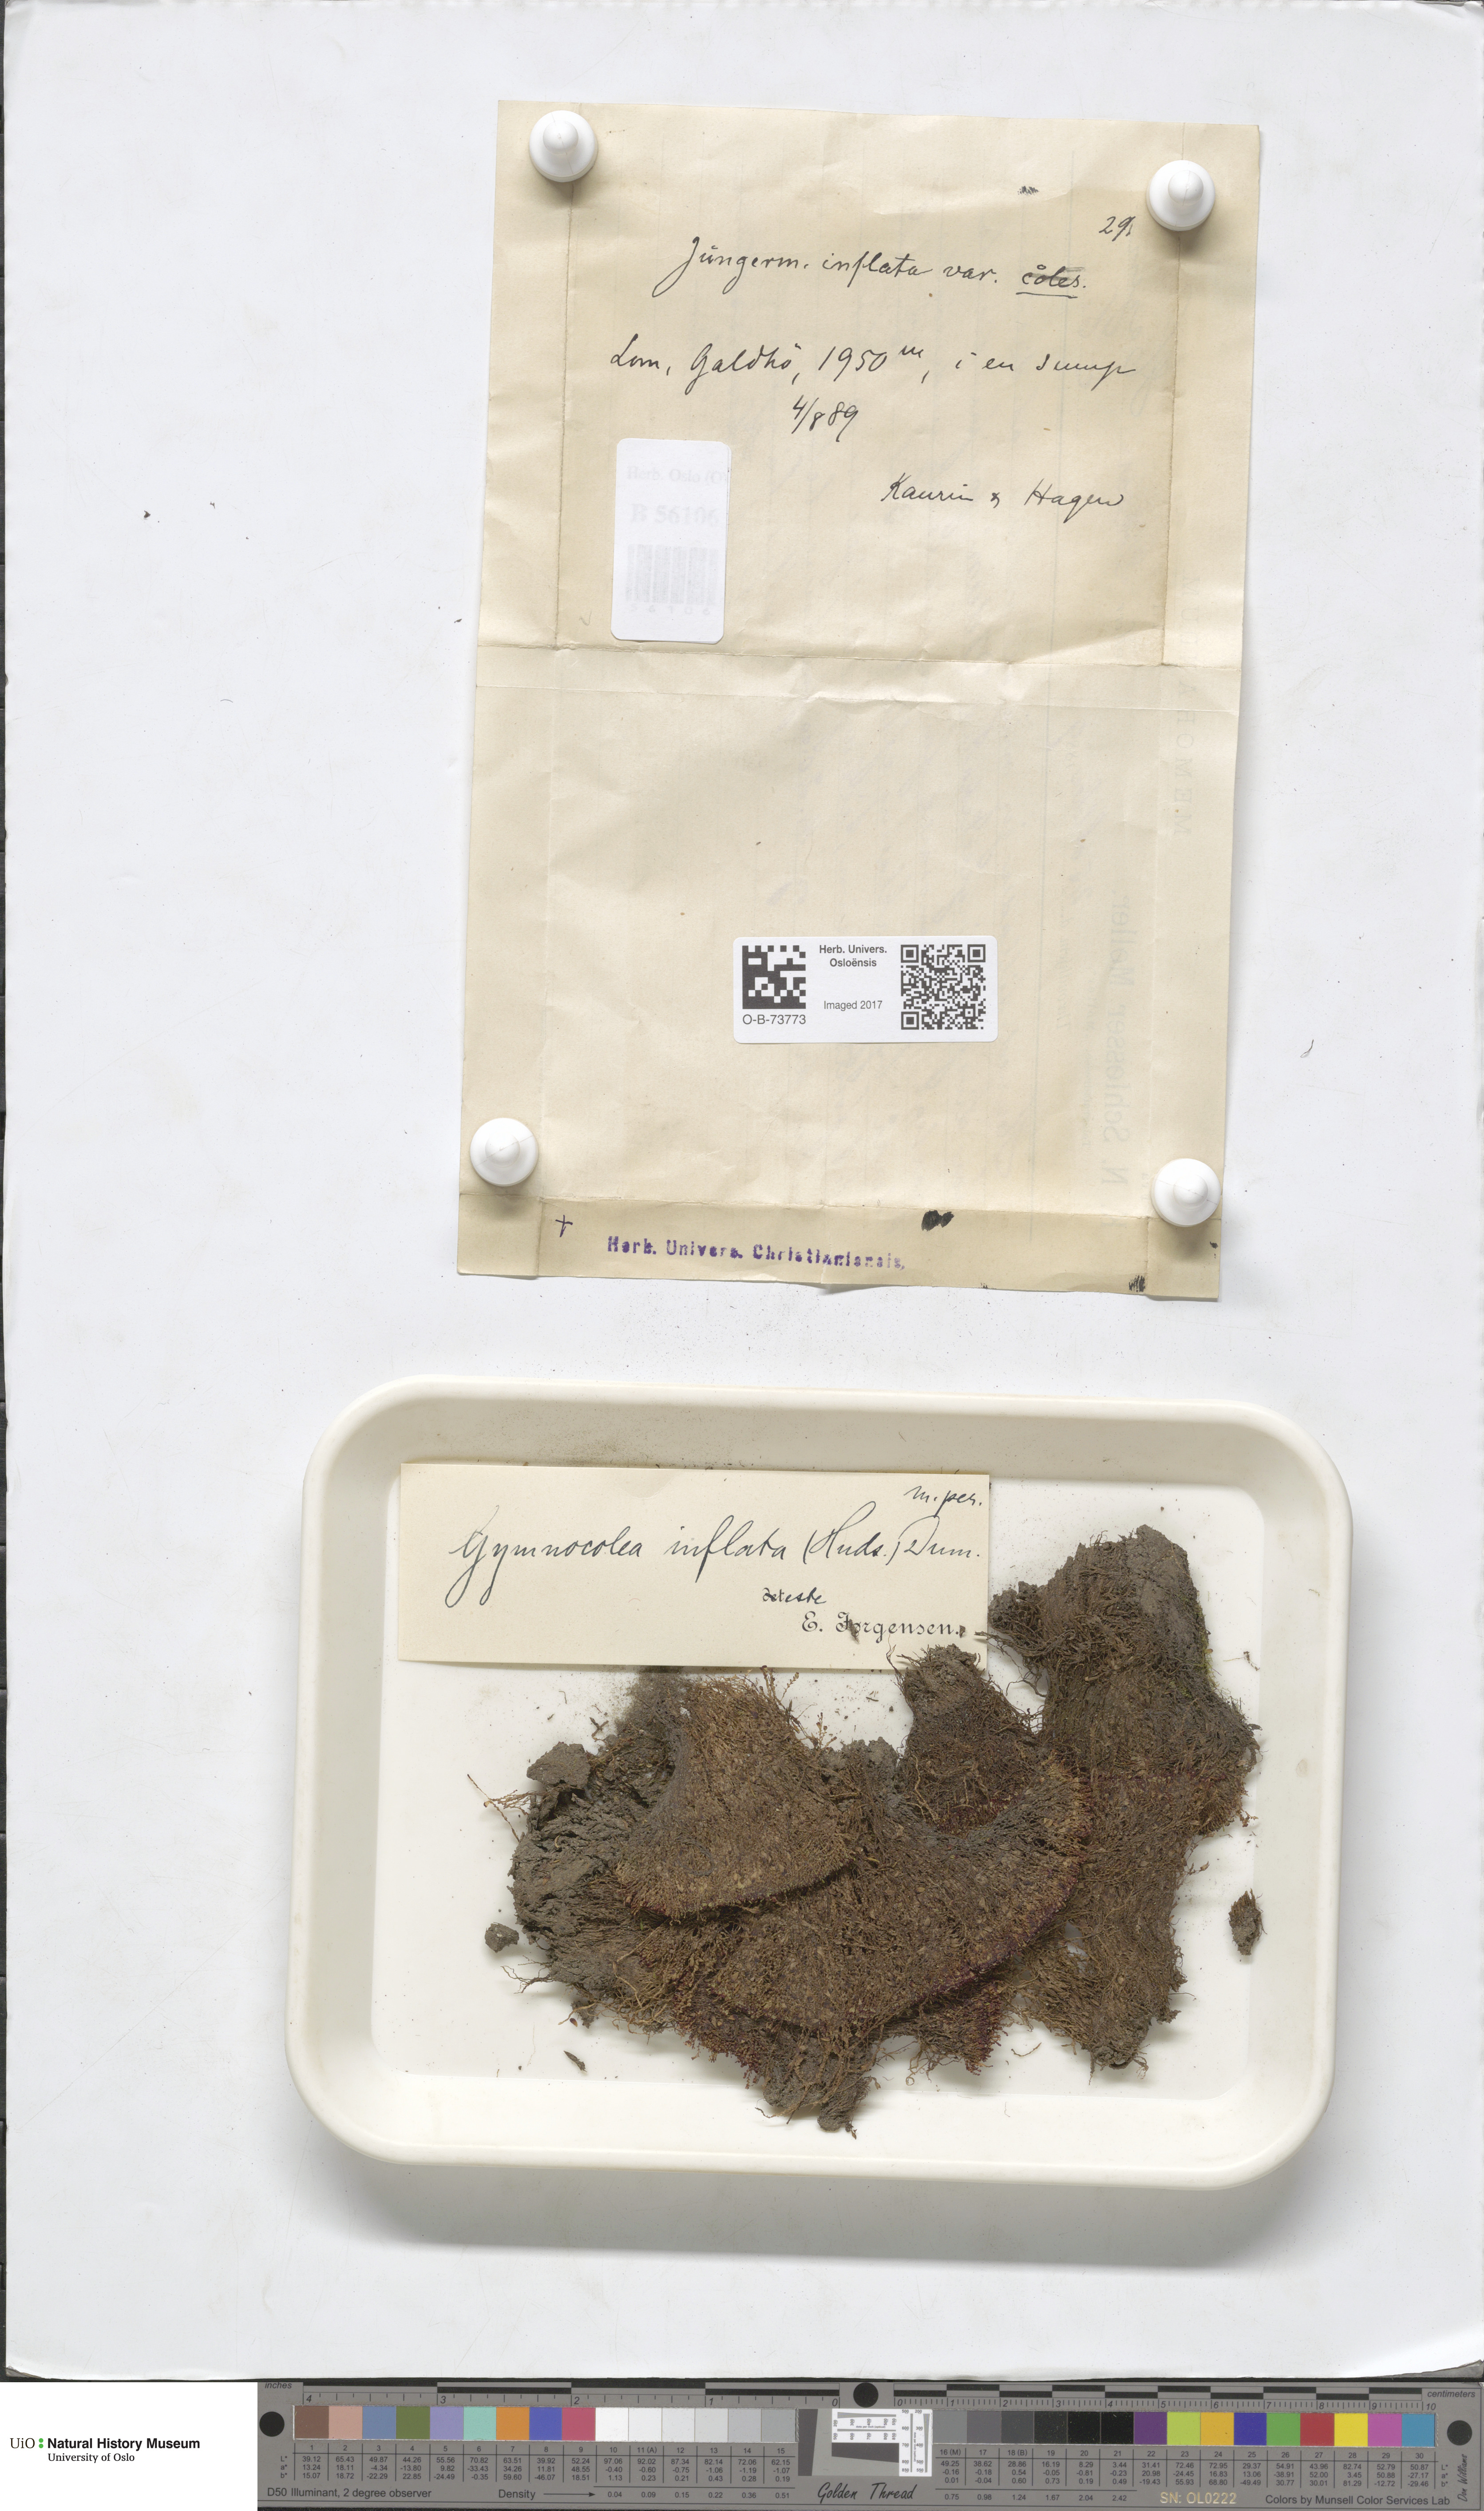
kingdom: Plantae
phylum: Marchantiophyta
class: Jungermanniopsida
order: Jungermanniales
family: Anastrophyllaceae
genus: Gymnocolea
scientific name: Gymnocolea inflata
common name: Inflated notchwort
